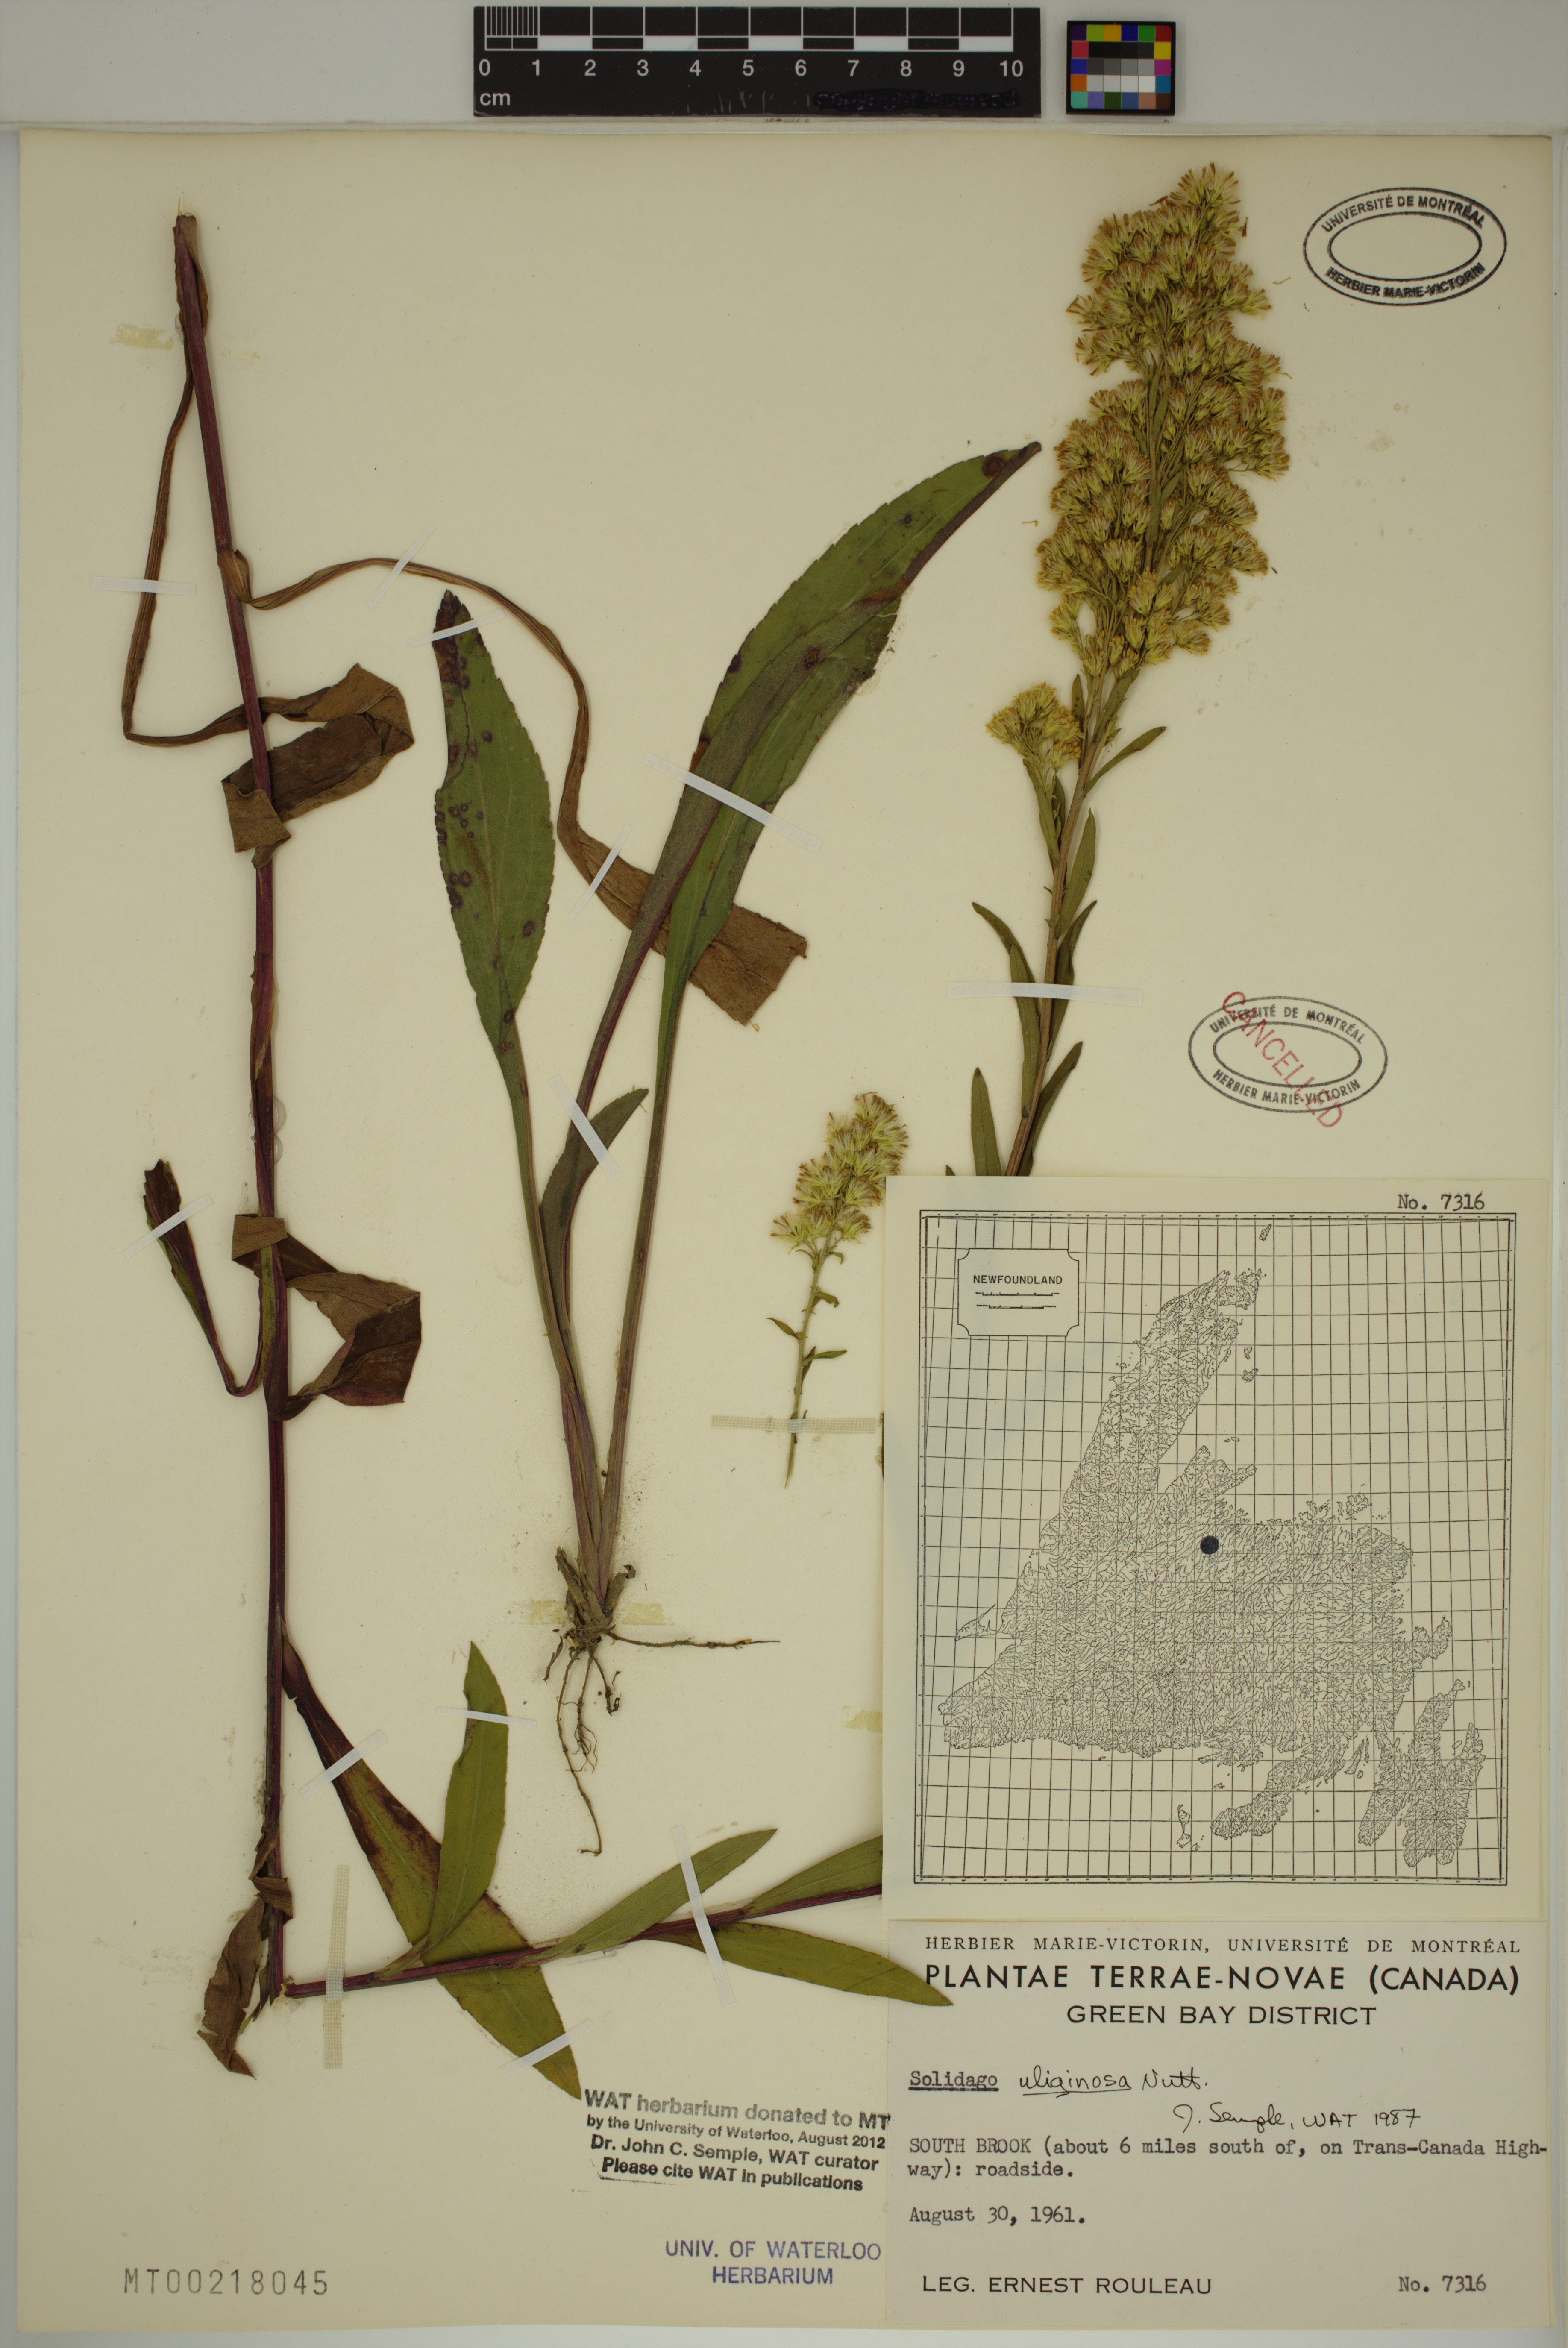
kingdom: Plantae
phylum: Tracheophyta
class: Magnoliopsida
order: Asterales
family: Asteraceae
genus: Solidago
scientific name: Solidago uliginosa
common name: Bog goldenrod
